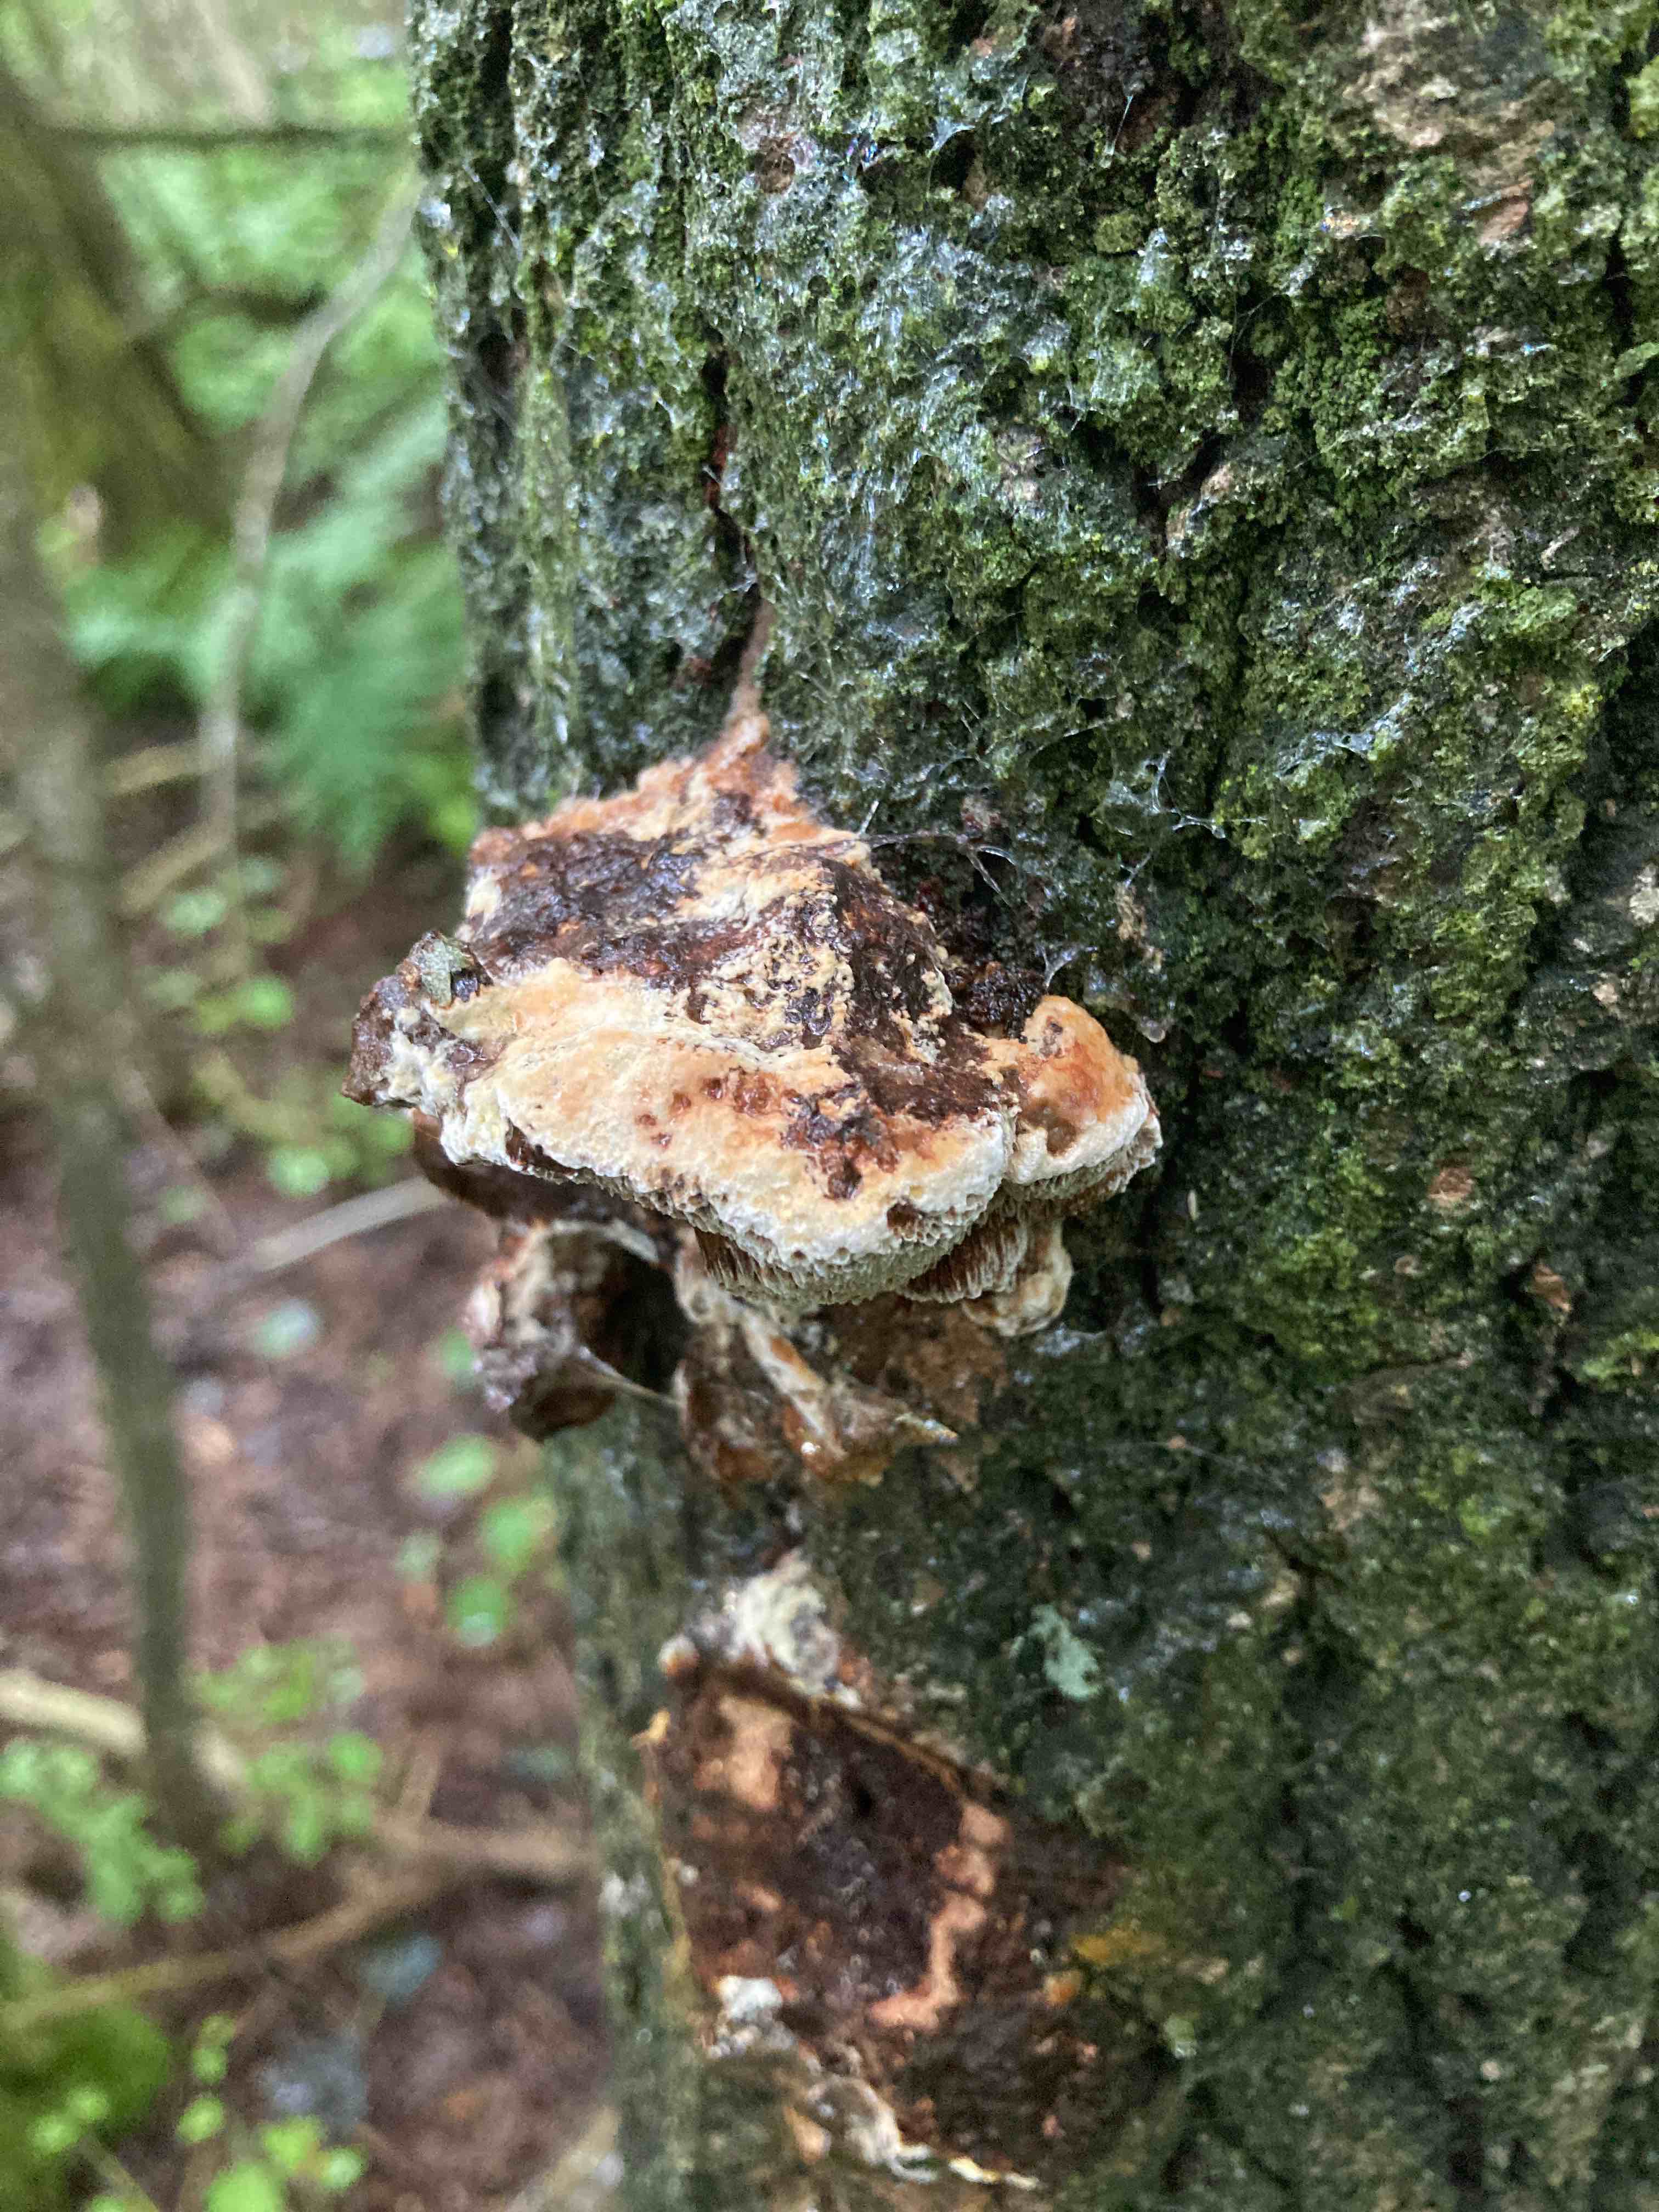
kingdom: Fungi
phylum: Basidiomycota
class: Agaricomycetes
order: Hymenochaetales
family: Hymenochaetaceae
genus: Inocutis
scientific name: Inocutis rheades
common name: ræve-spejlporesvamp
